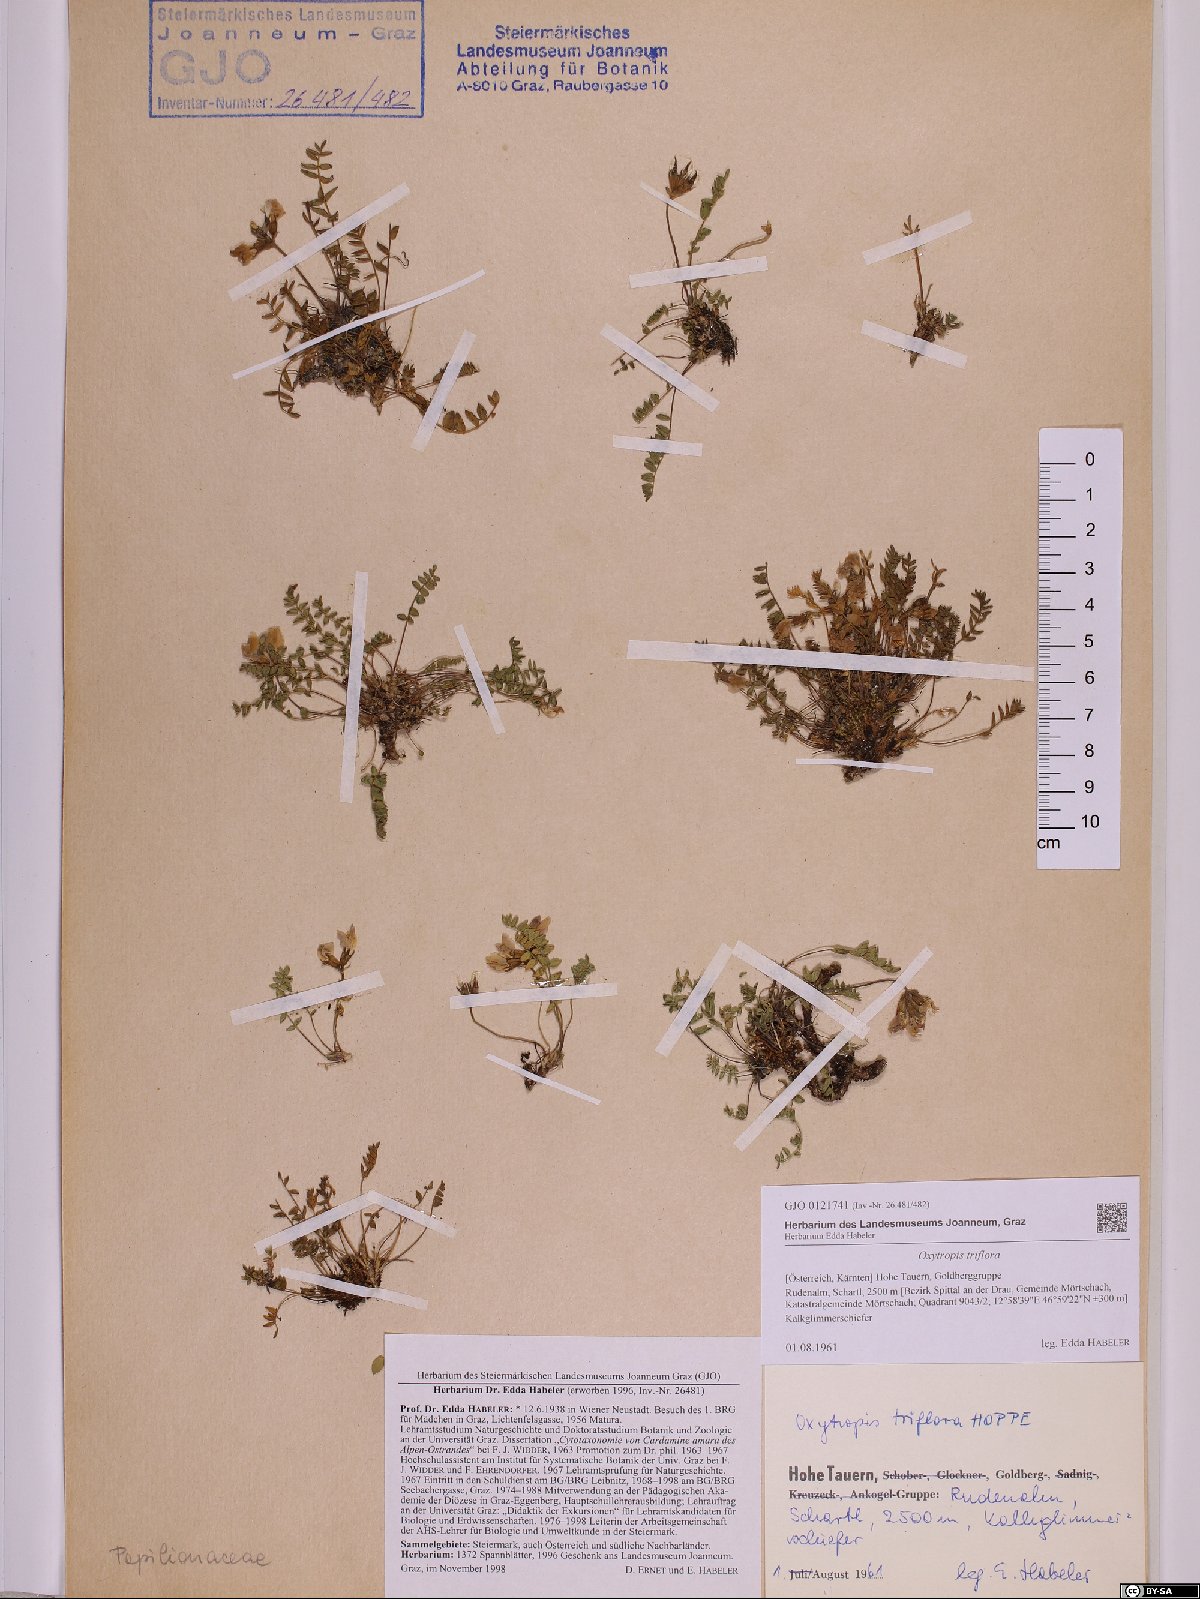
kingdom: Plantae
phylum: Tracheophyta
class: Magnoliopsida
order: Fabales
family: Fabaceae
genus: Oxytropis
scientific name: Oxytropis triflora
